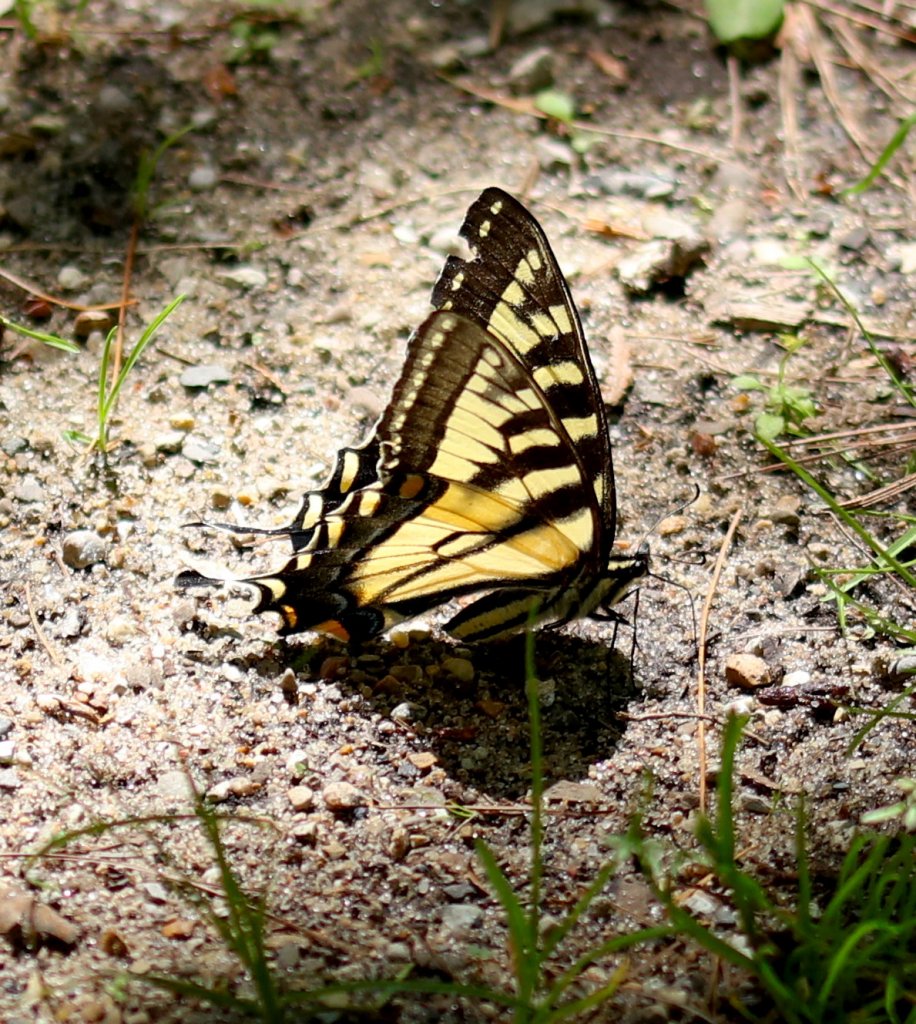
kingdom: Animalia
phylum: Arthropoda
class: Insecta
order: Lepidoptera
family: Papilionidae
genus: Pterourus
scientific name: Pterourus glaucus
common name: Eastern Tiger Swallowtail
